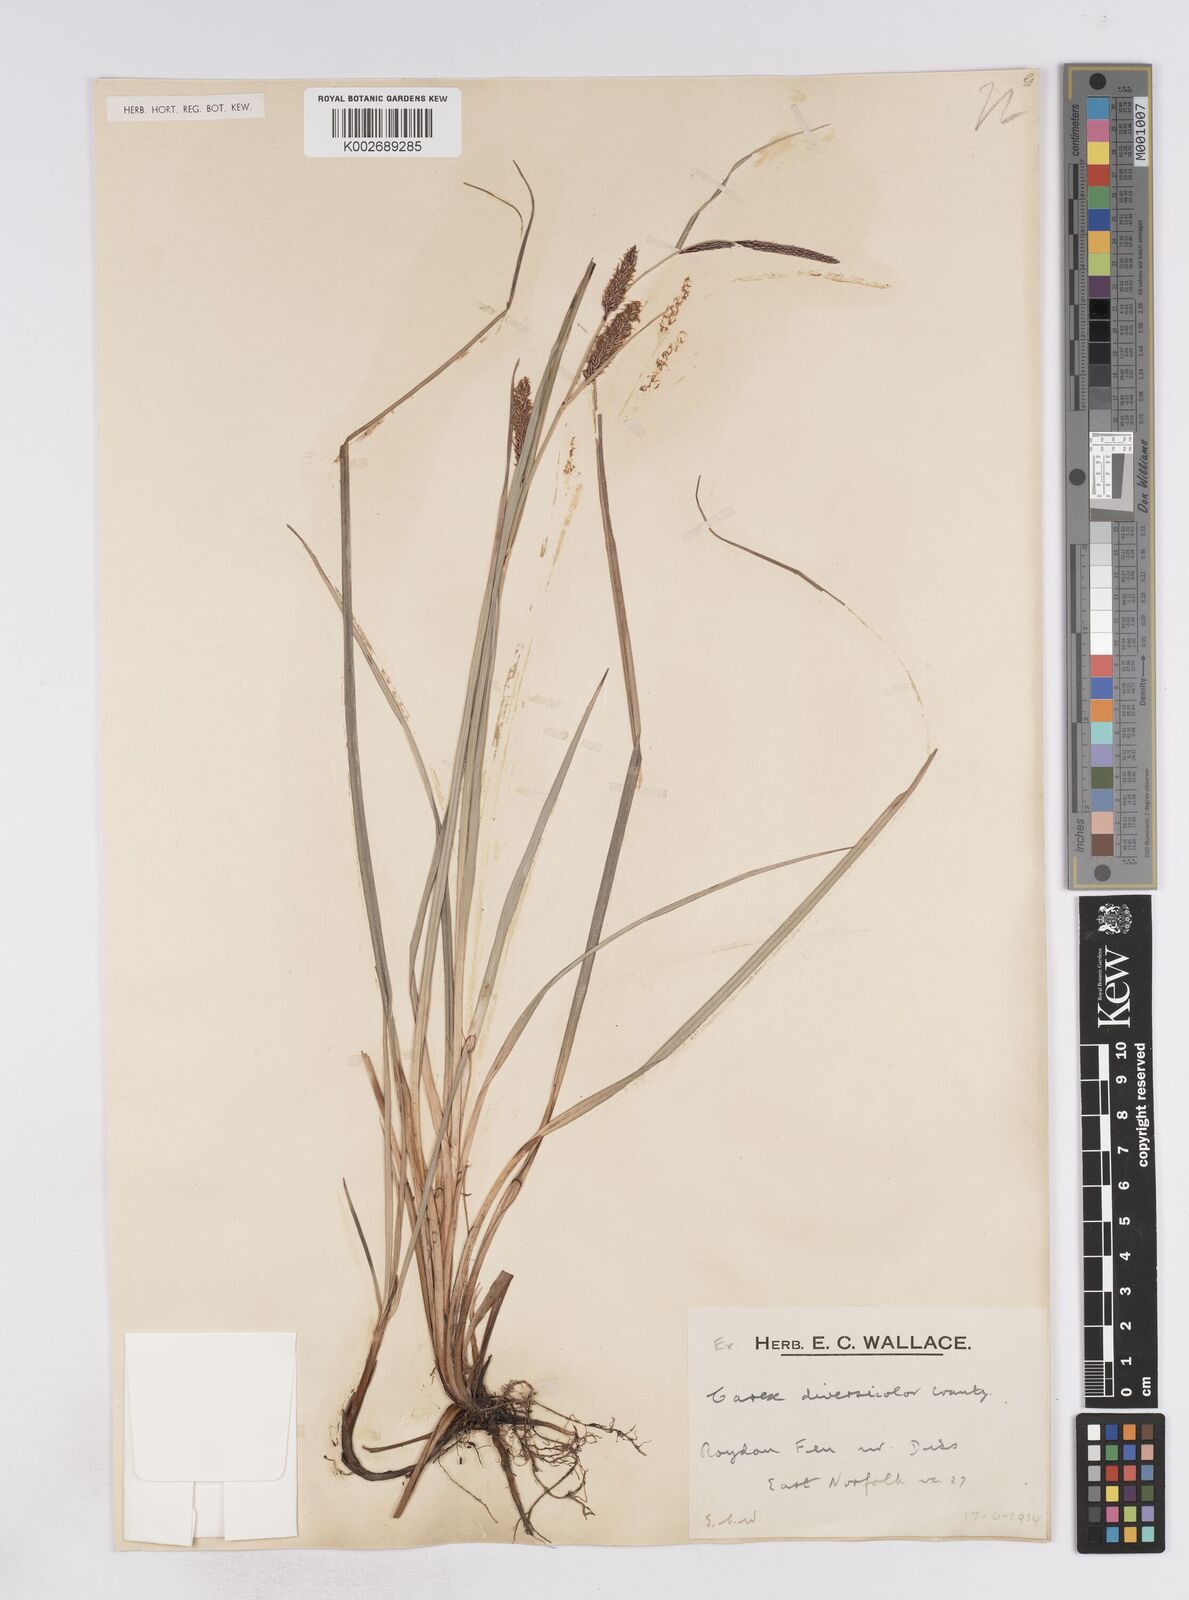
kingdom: Plantae
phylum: Tracheophyta
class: Liliopsida
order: Poales
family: Cyperaceae
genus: Carex
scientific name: Carex flacca
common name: Glaucous sedge
